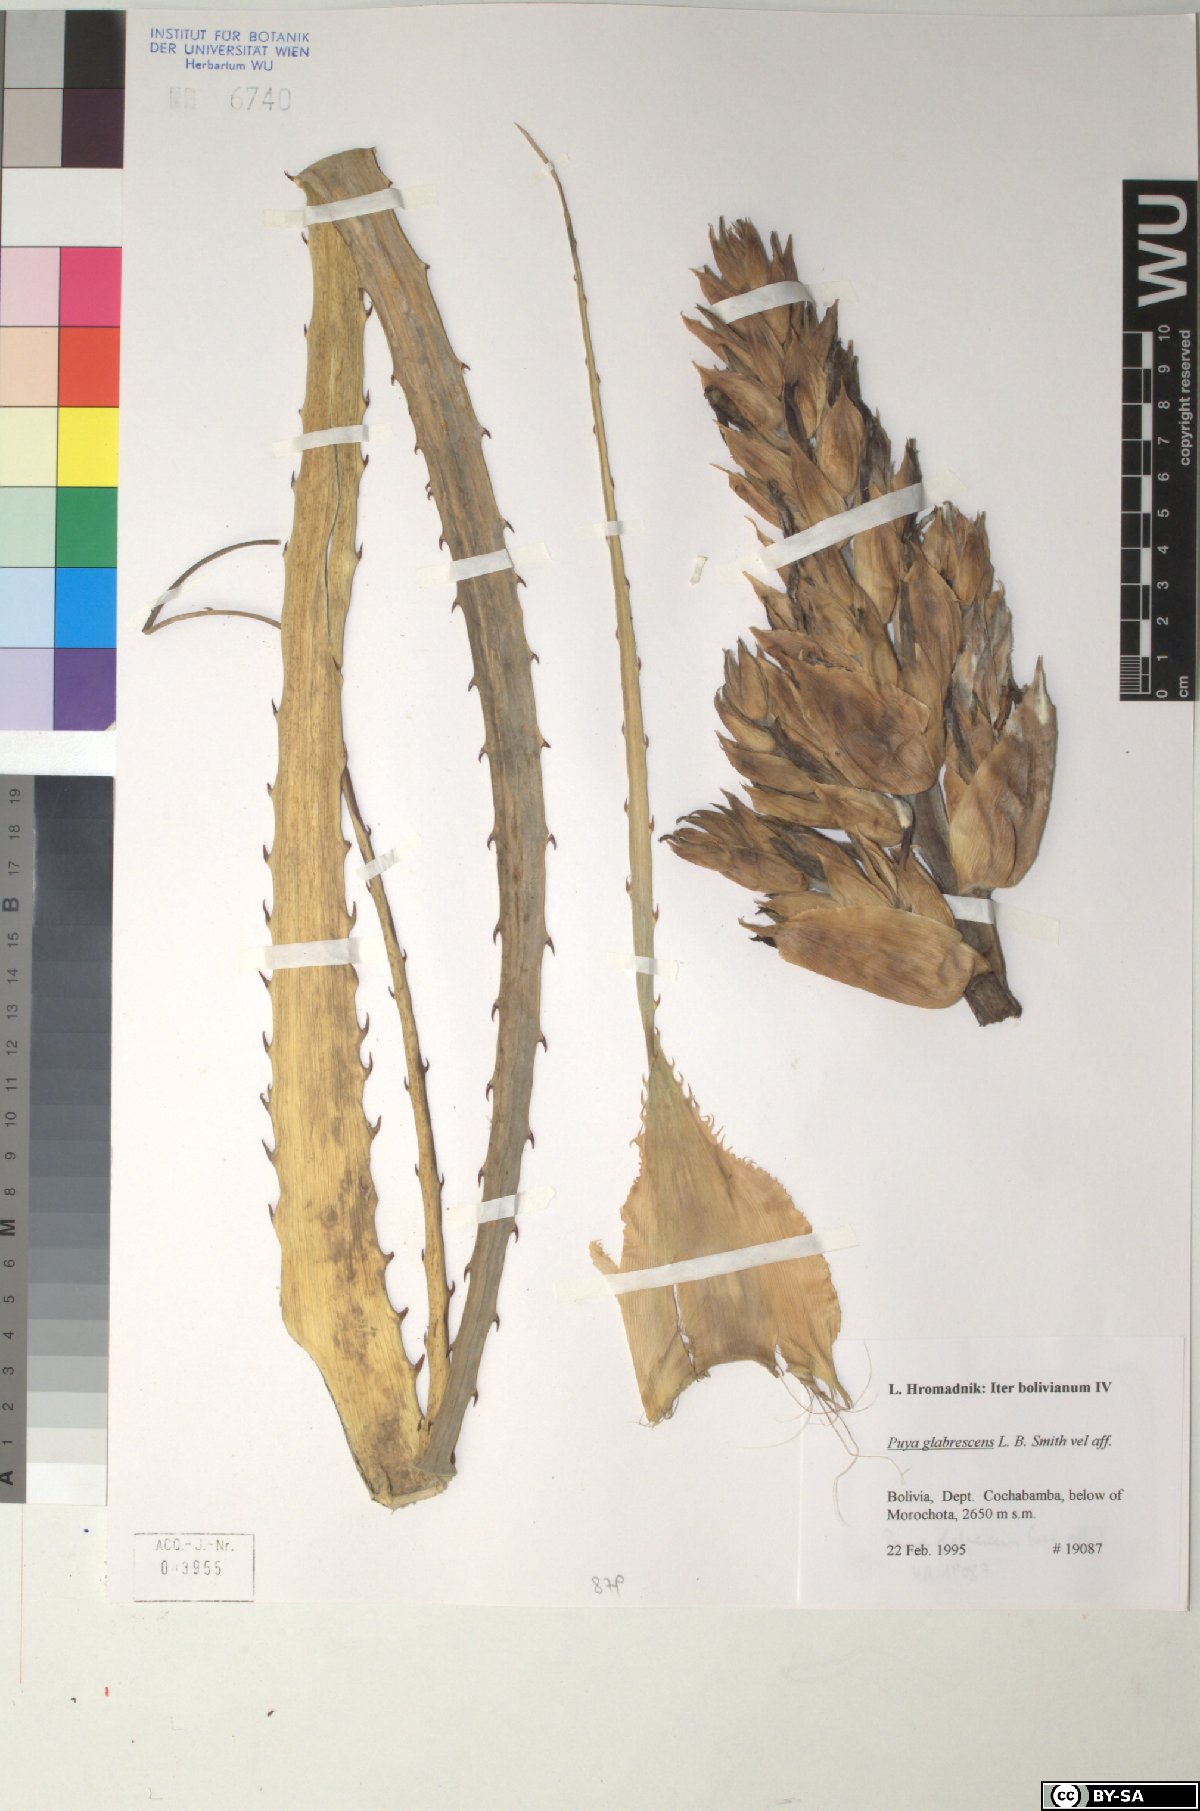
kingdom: Plantae
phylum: Tracheophyta
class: Liliopsida
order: Poales
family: Bromeliaceae
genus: Puya
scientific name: Puya glabrescens
